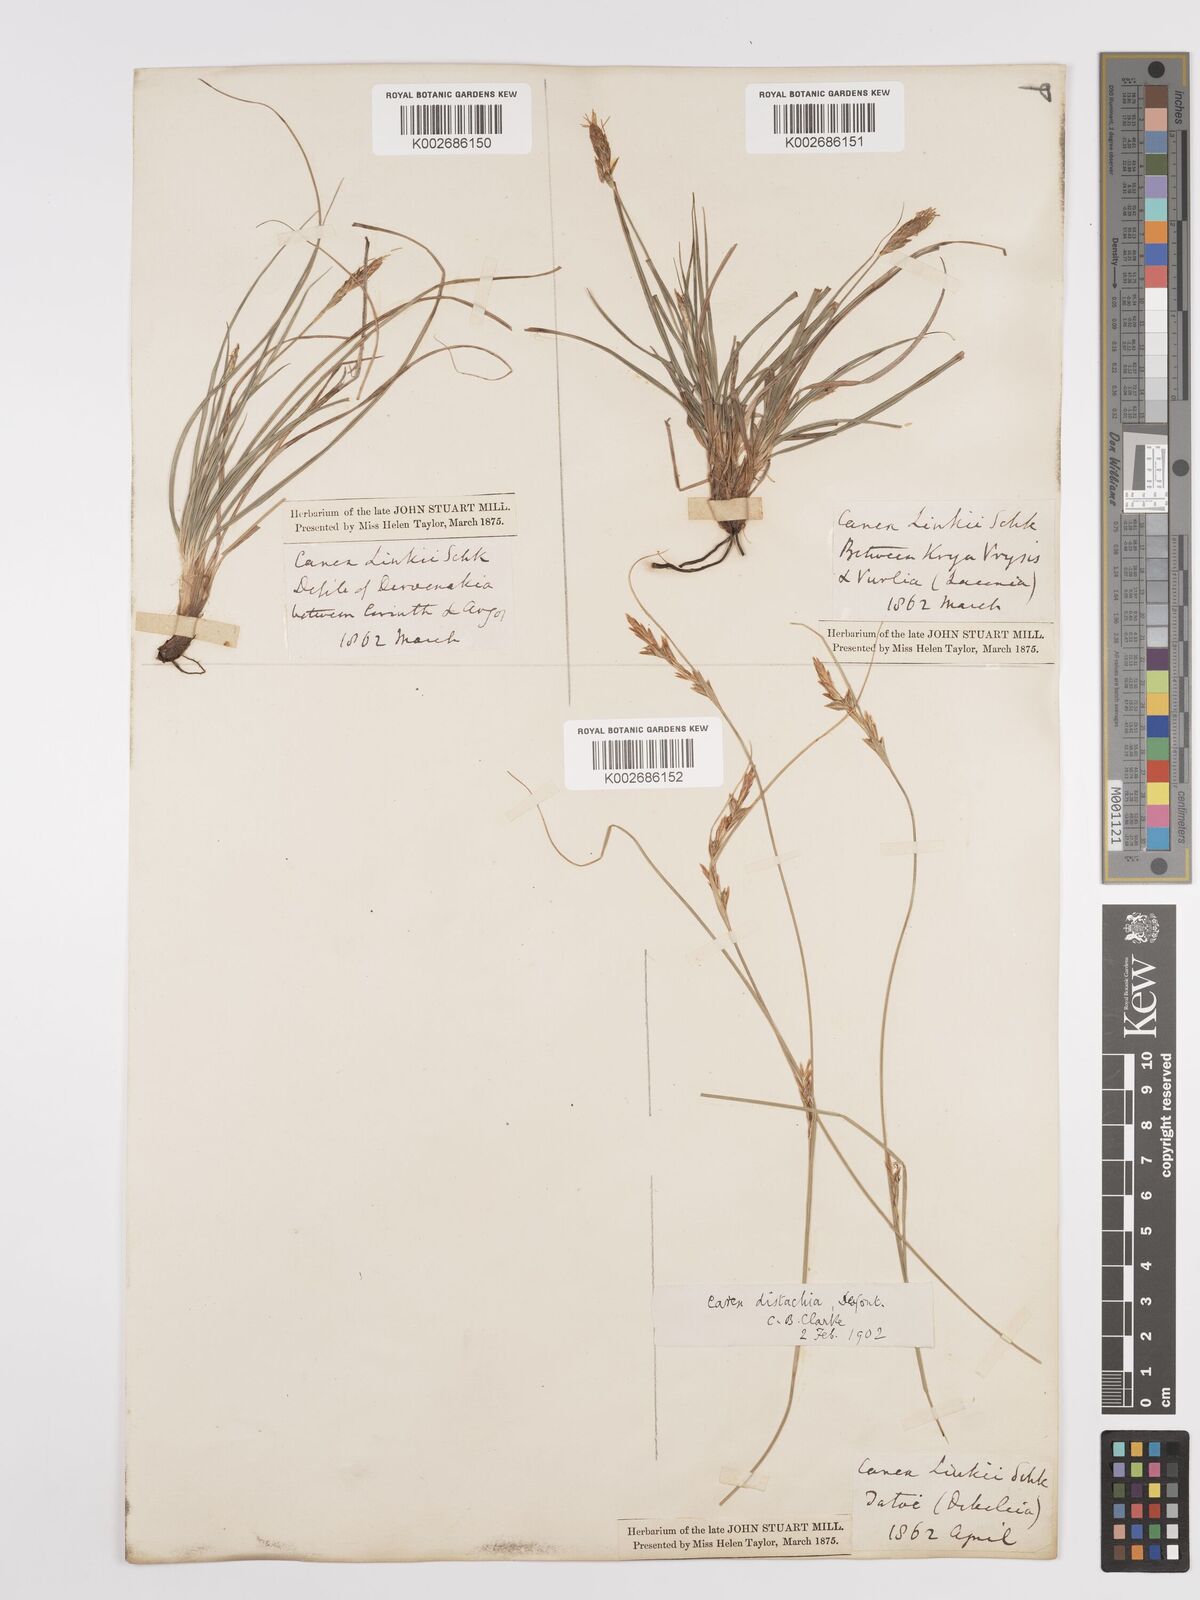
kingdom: Plantae
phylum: Tracheophyta
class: Liliopsida
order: Poales
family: Cyperaceae
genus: Carex
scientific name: Carex distachya
